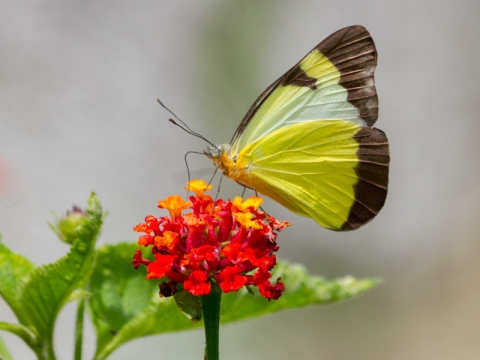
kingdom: Animalia
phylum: Arthropoda
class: Insecta
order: Lepidoptera
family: Pieridae
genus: Melete
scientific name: Melete lycimnia
